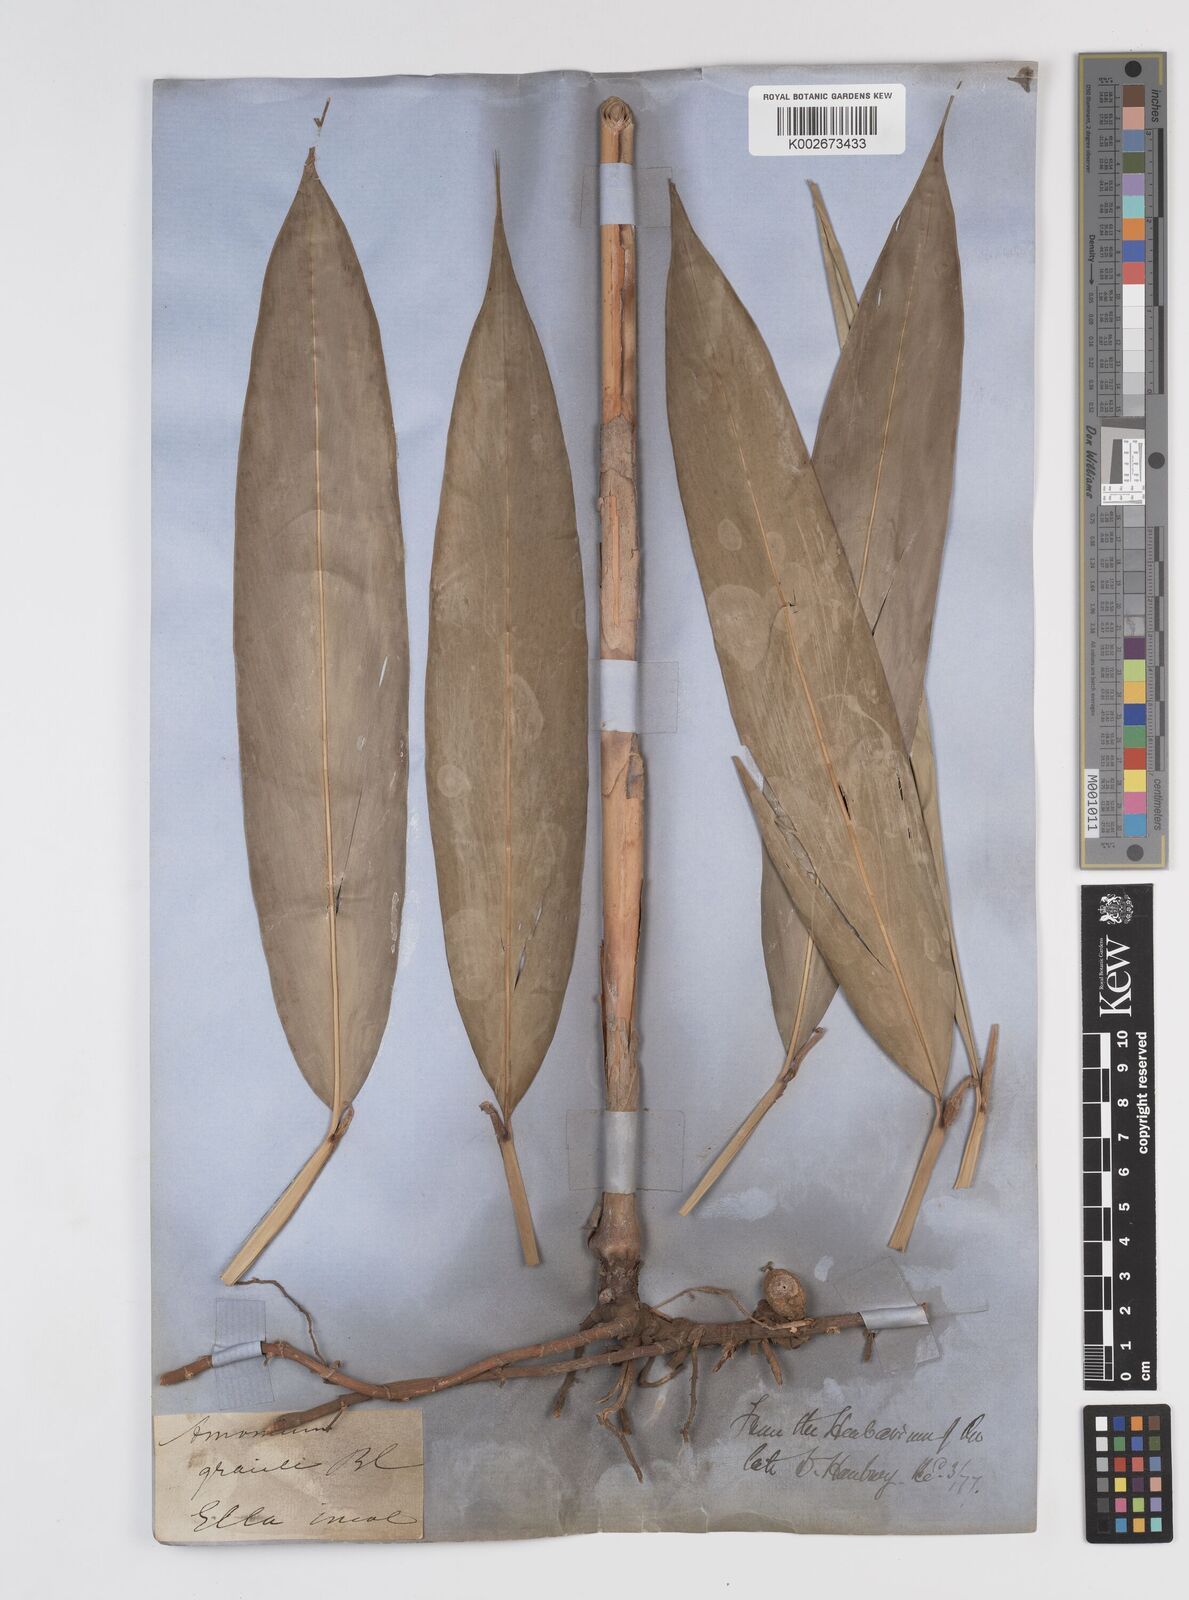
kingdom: Plantae
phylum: Tracheophyta
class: Liliopsida
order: Zingiberales
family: Zingiberaceae
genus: Wurfbainia
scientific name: Wurfbainia gracilis
